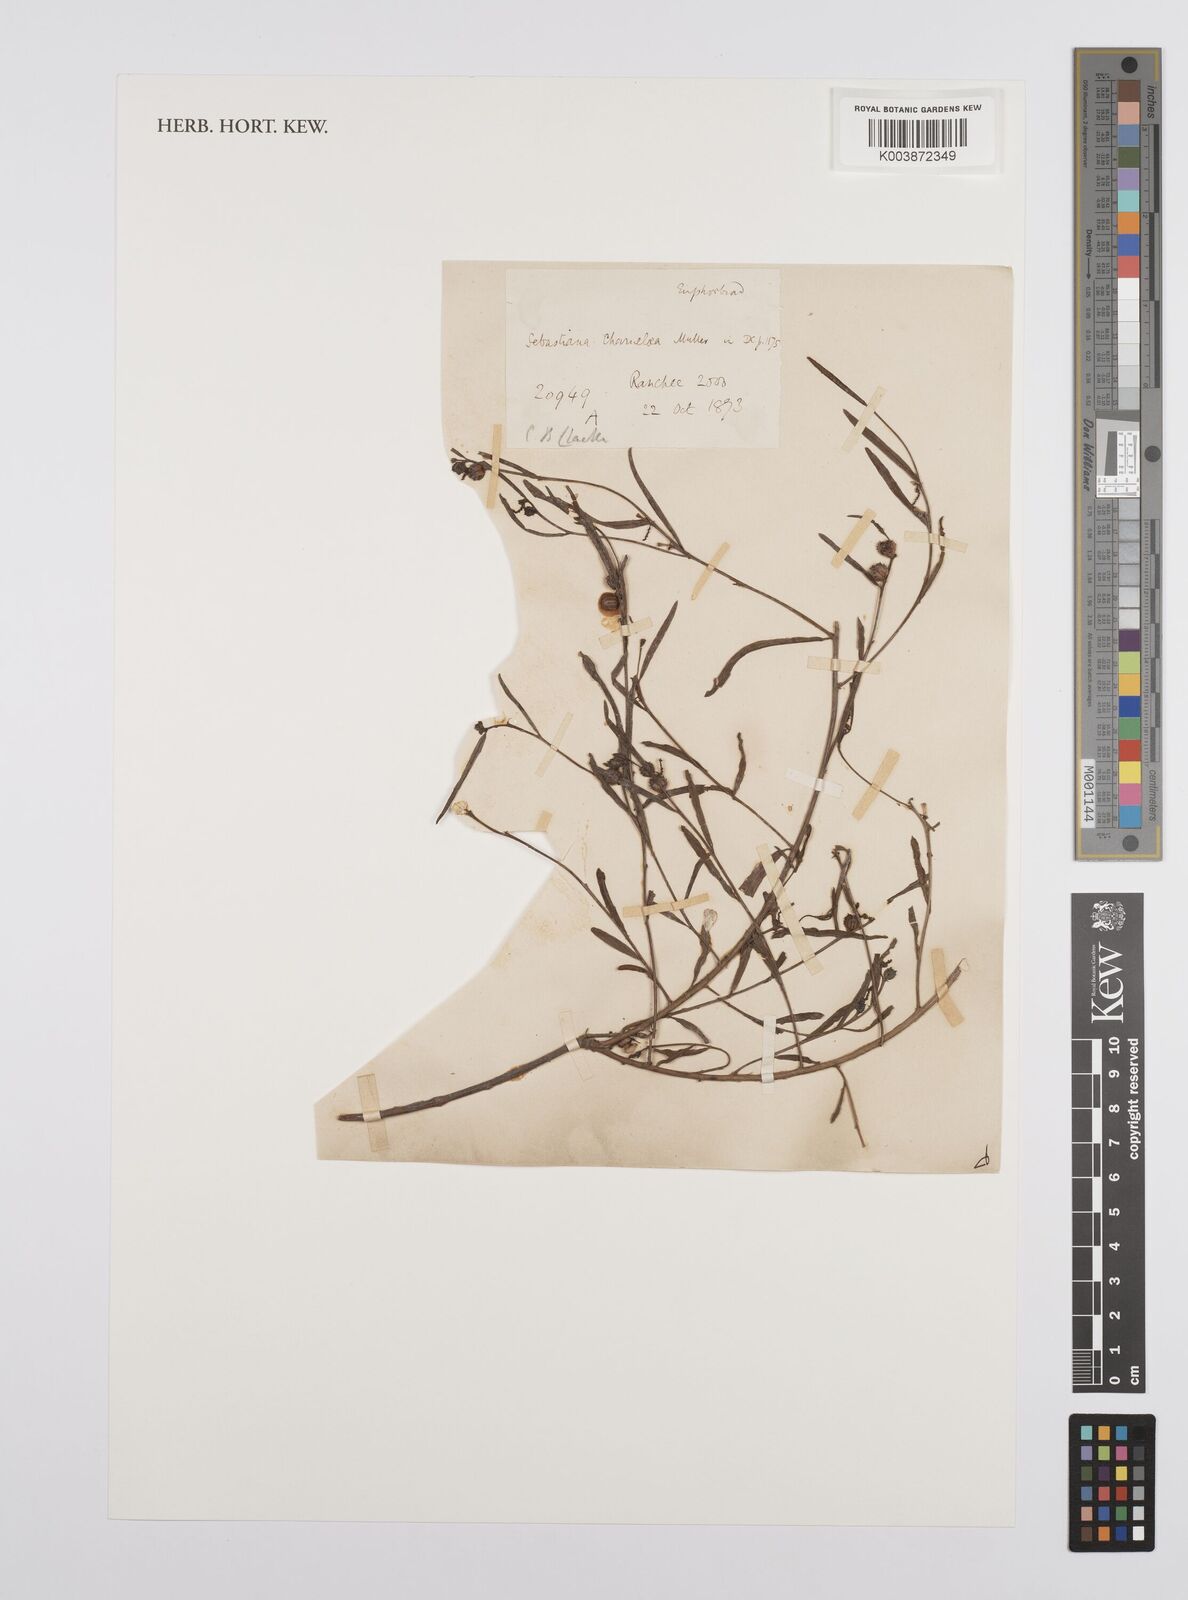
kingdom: Plantae
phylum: Tracheophyta
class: Magnoliopsida
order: Malpighiales
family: Euphorbiaceae
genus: Microstachys
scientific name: Microstachys chamaelea
